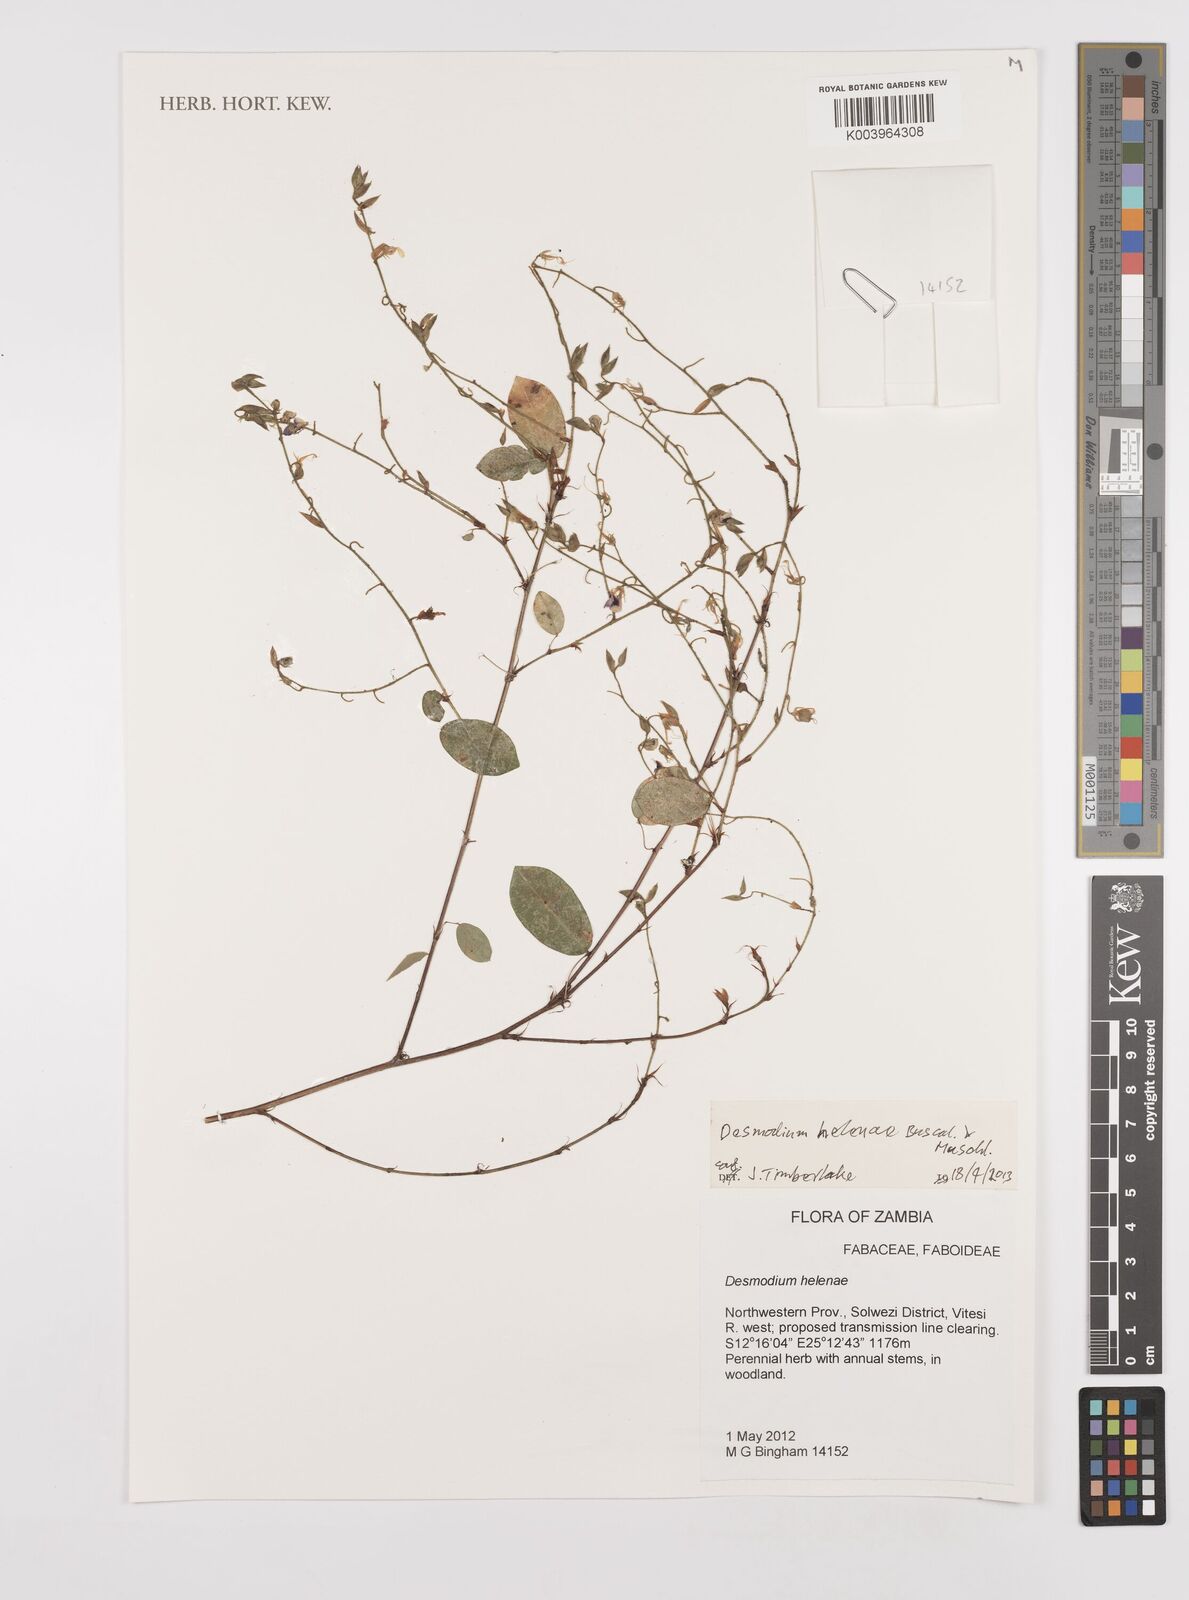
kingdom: Plantae
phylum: Tracheophyta
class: Magnoliopsida
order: Fabales
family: Fabaceae
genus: Grona
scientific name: Grona helenae
